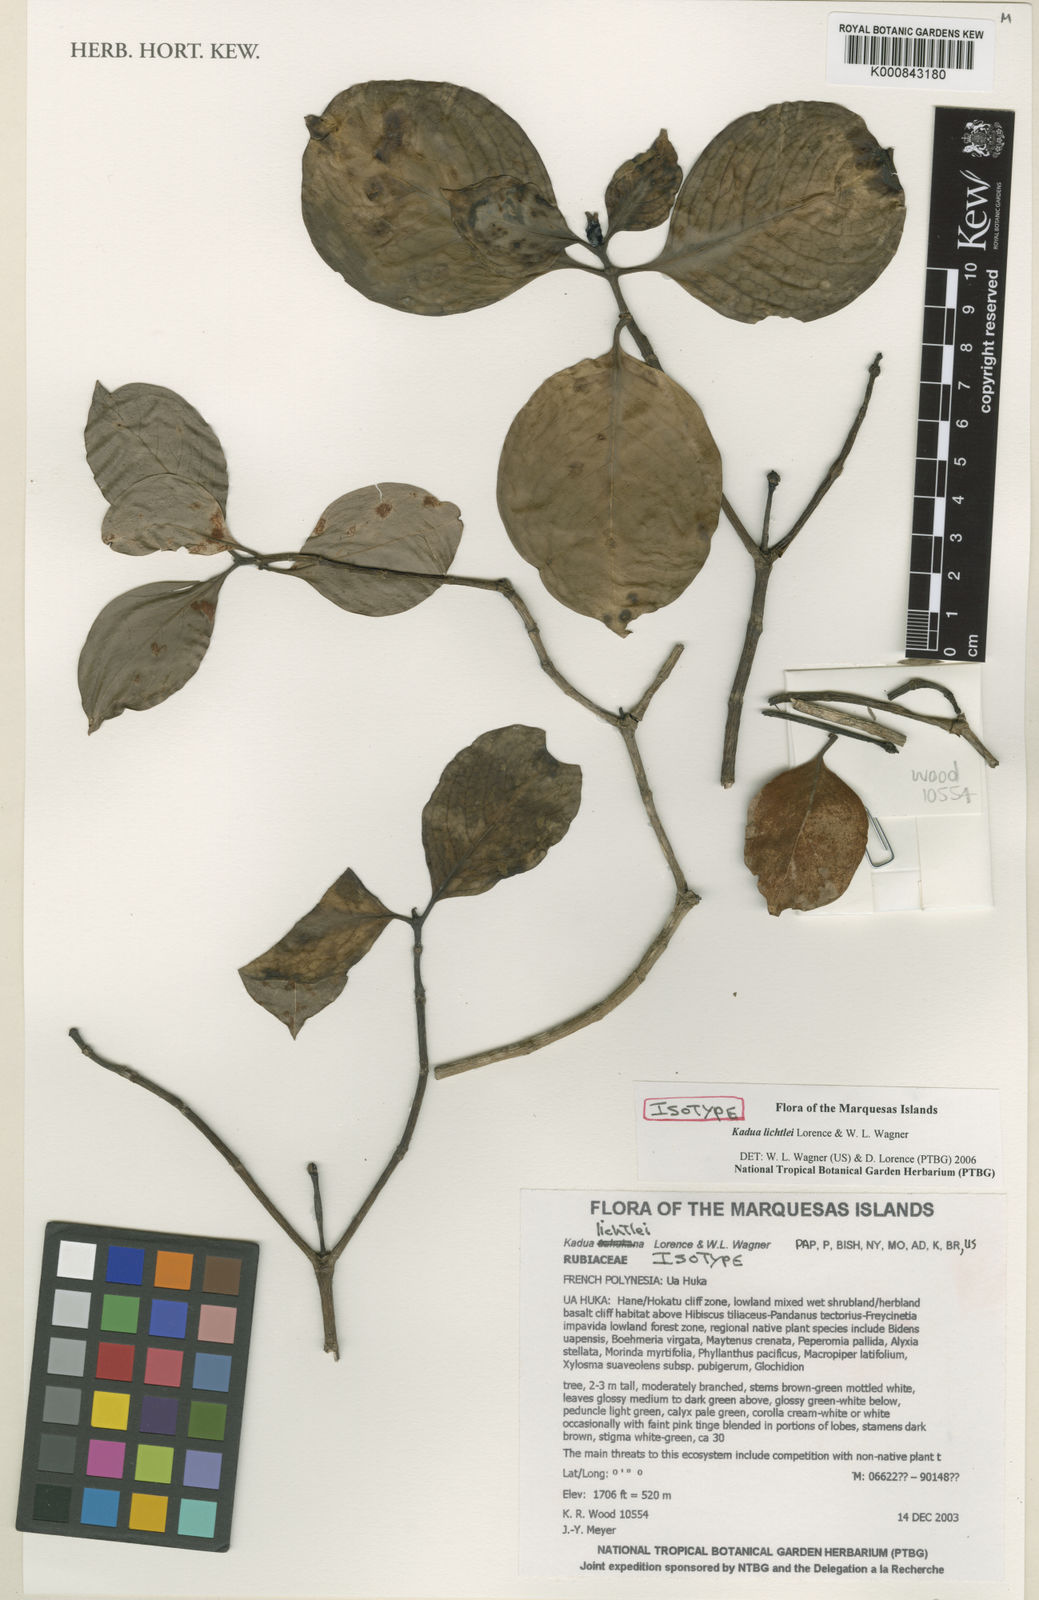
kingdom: Plantae
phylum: Tracheophyta
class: Magnoliopsida
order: Gentianales
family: Rubiaceae
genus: Kadua
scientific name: Kadua lichtlei
